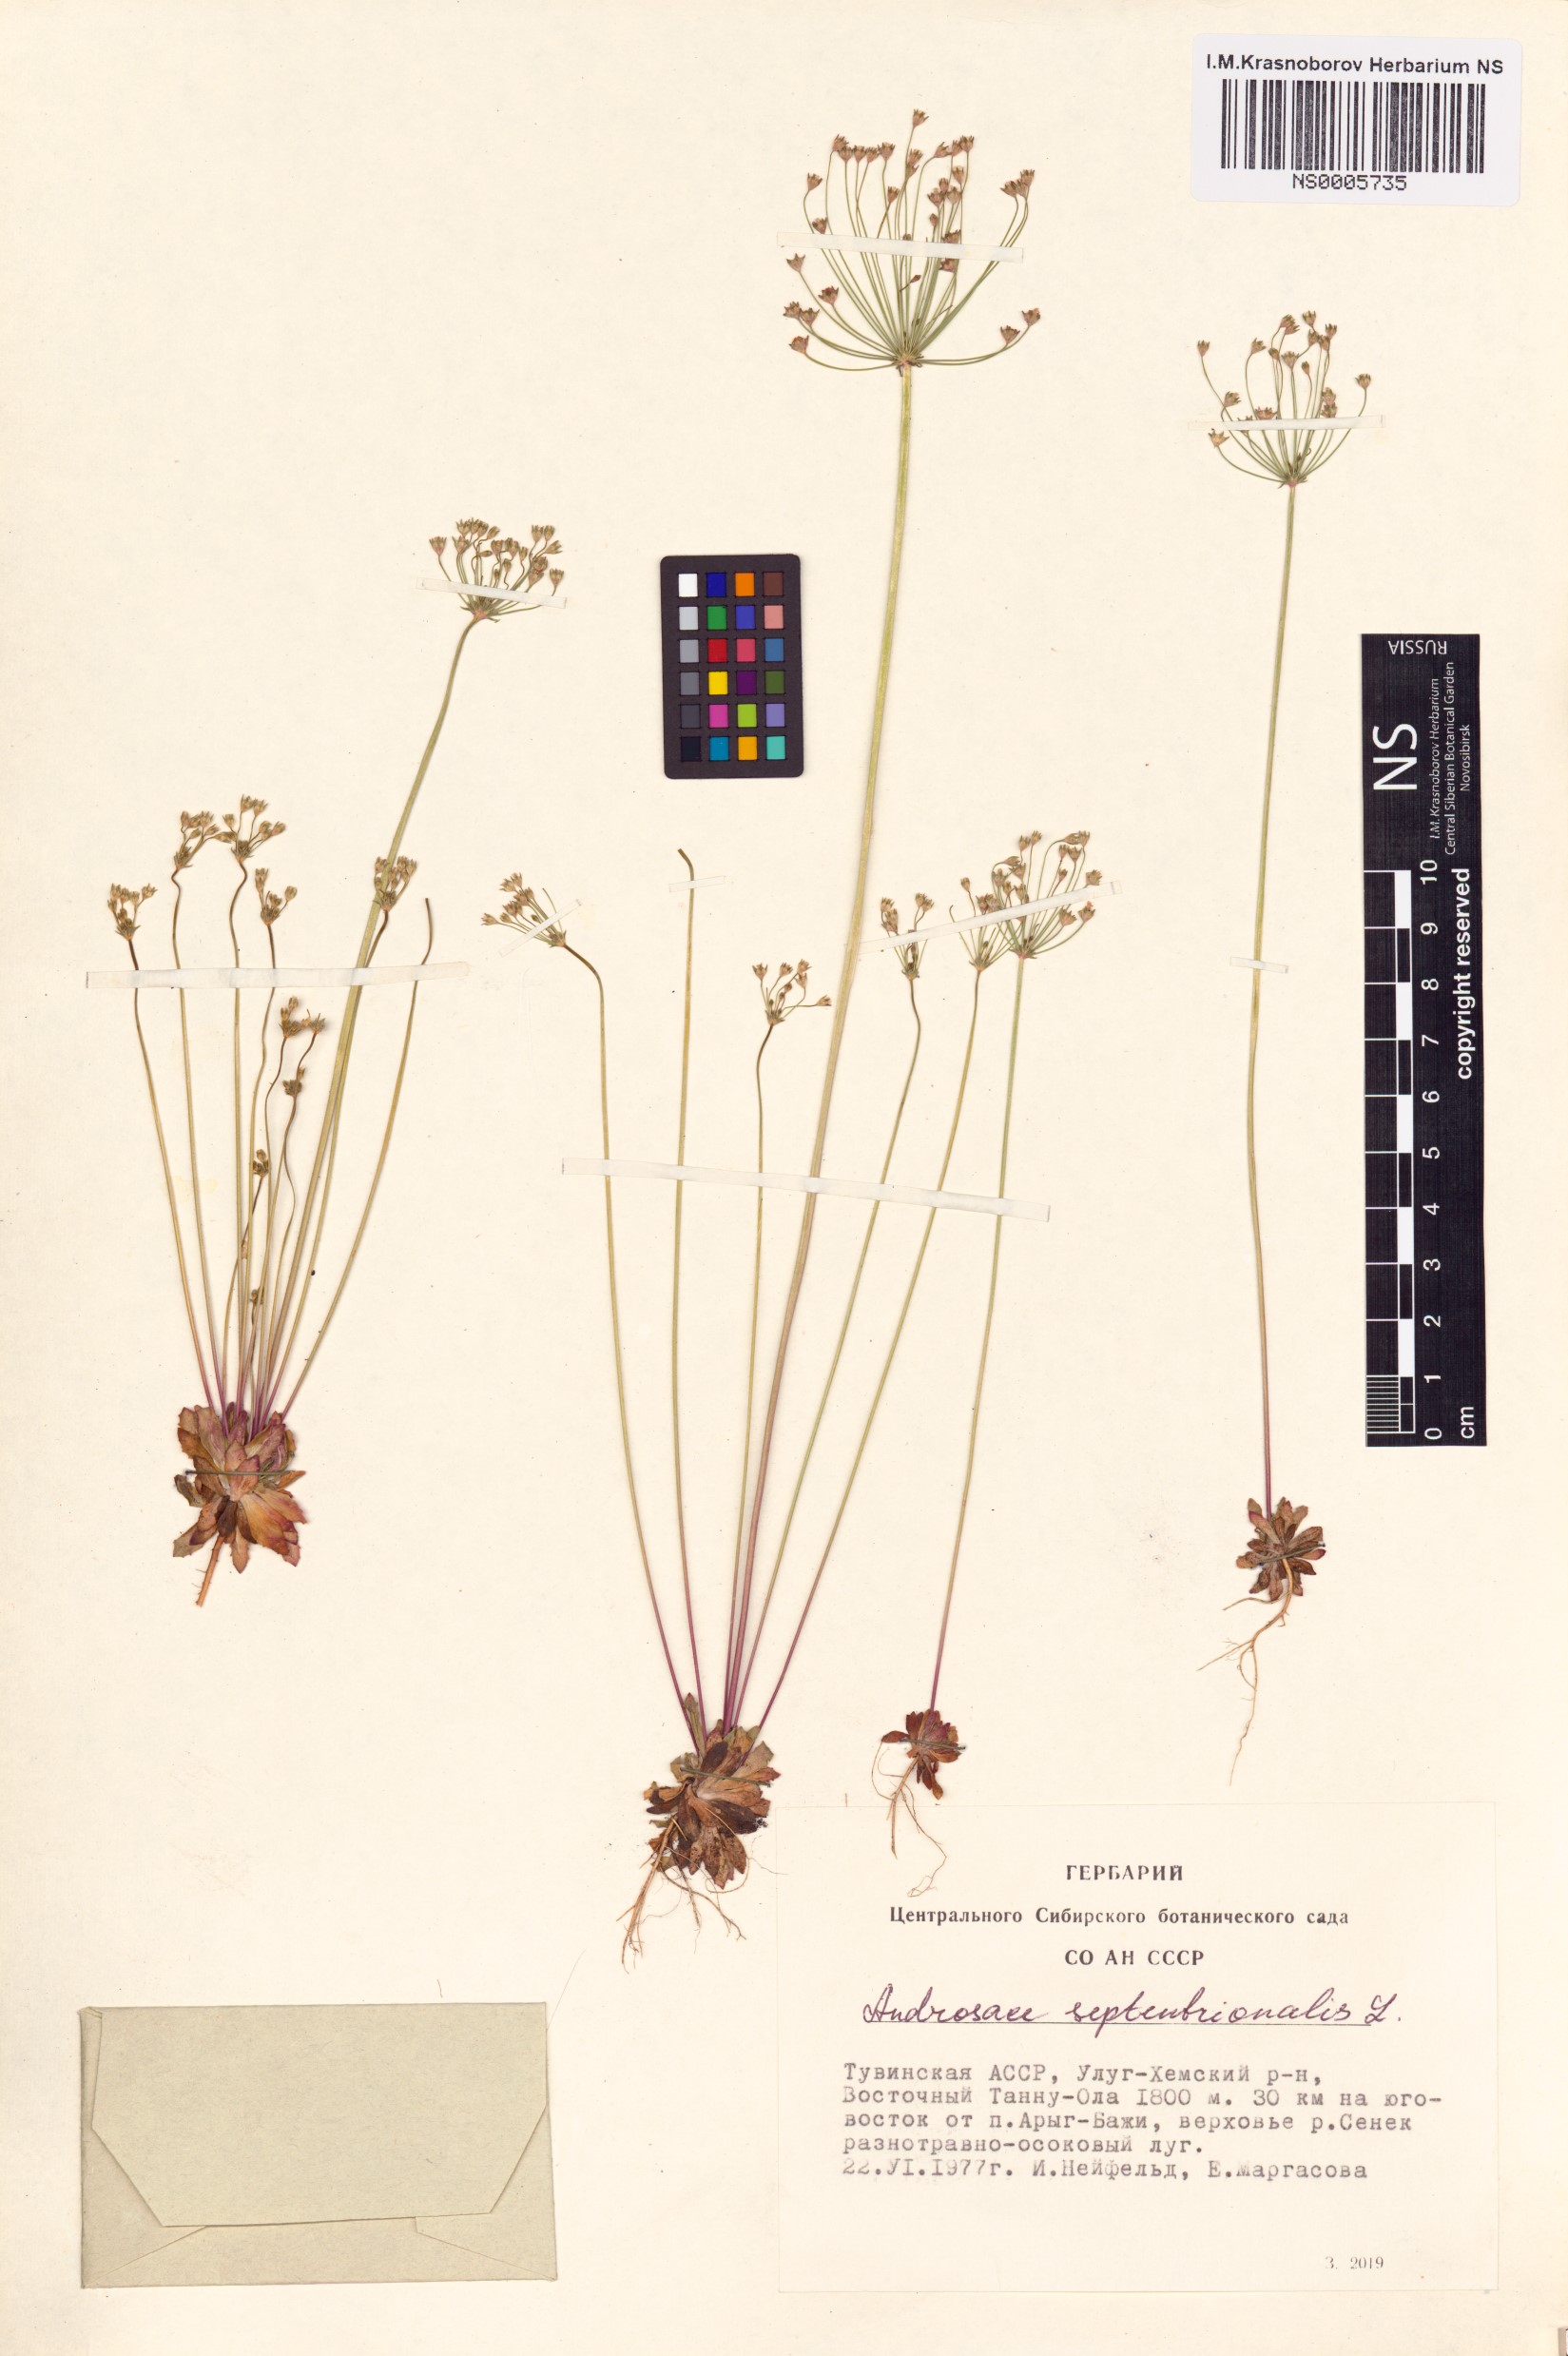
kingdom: Plantae
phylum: Tracheophyta
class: Magnoliopsida
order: Ericales
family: Primulaceae
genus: Androsace
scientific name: Androsace septentrionalis
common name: Hairy northern fairy-candelabra
